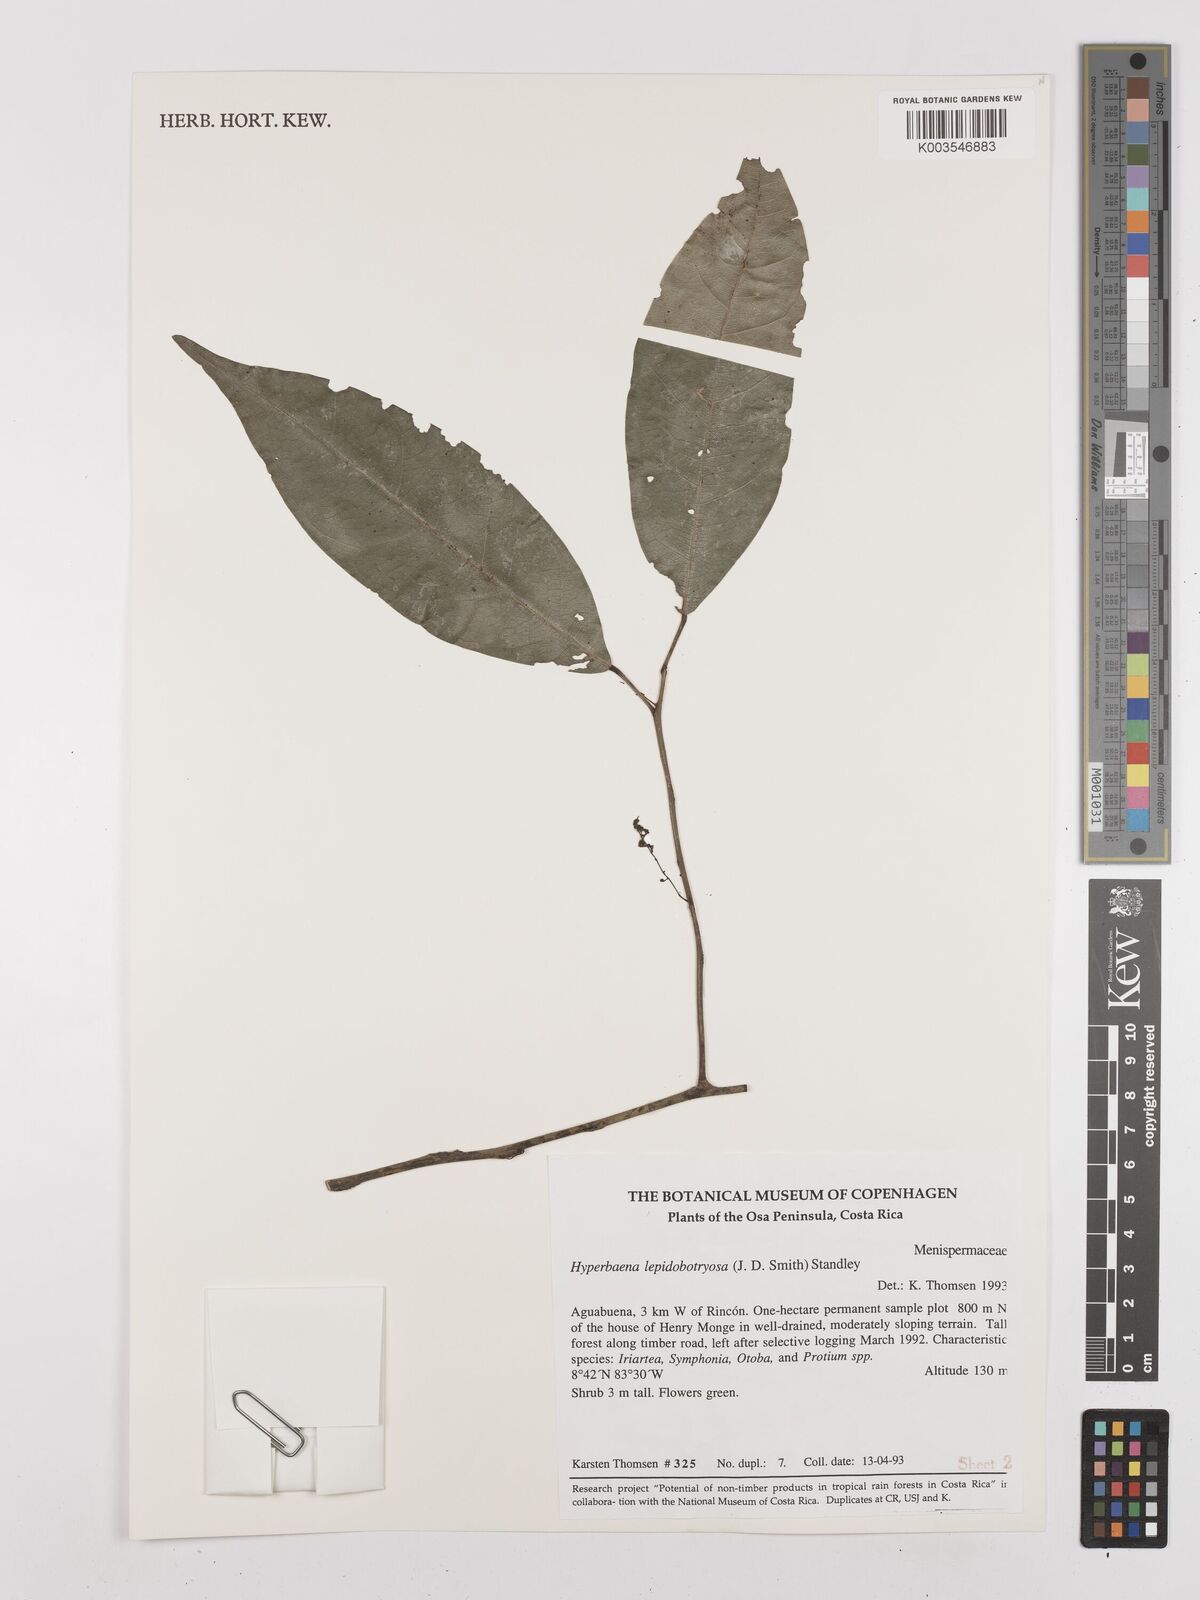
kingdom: Plantae
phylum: Tracheophyta
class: Magnoliopsida
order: Ranunculales
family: Menispermaceae
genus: Hyperbaena
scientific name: Hyperbaena leptobotryosa
